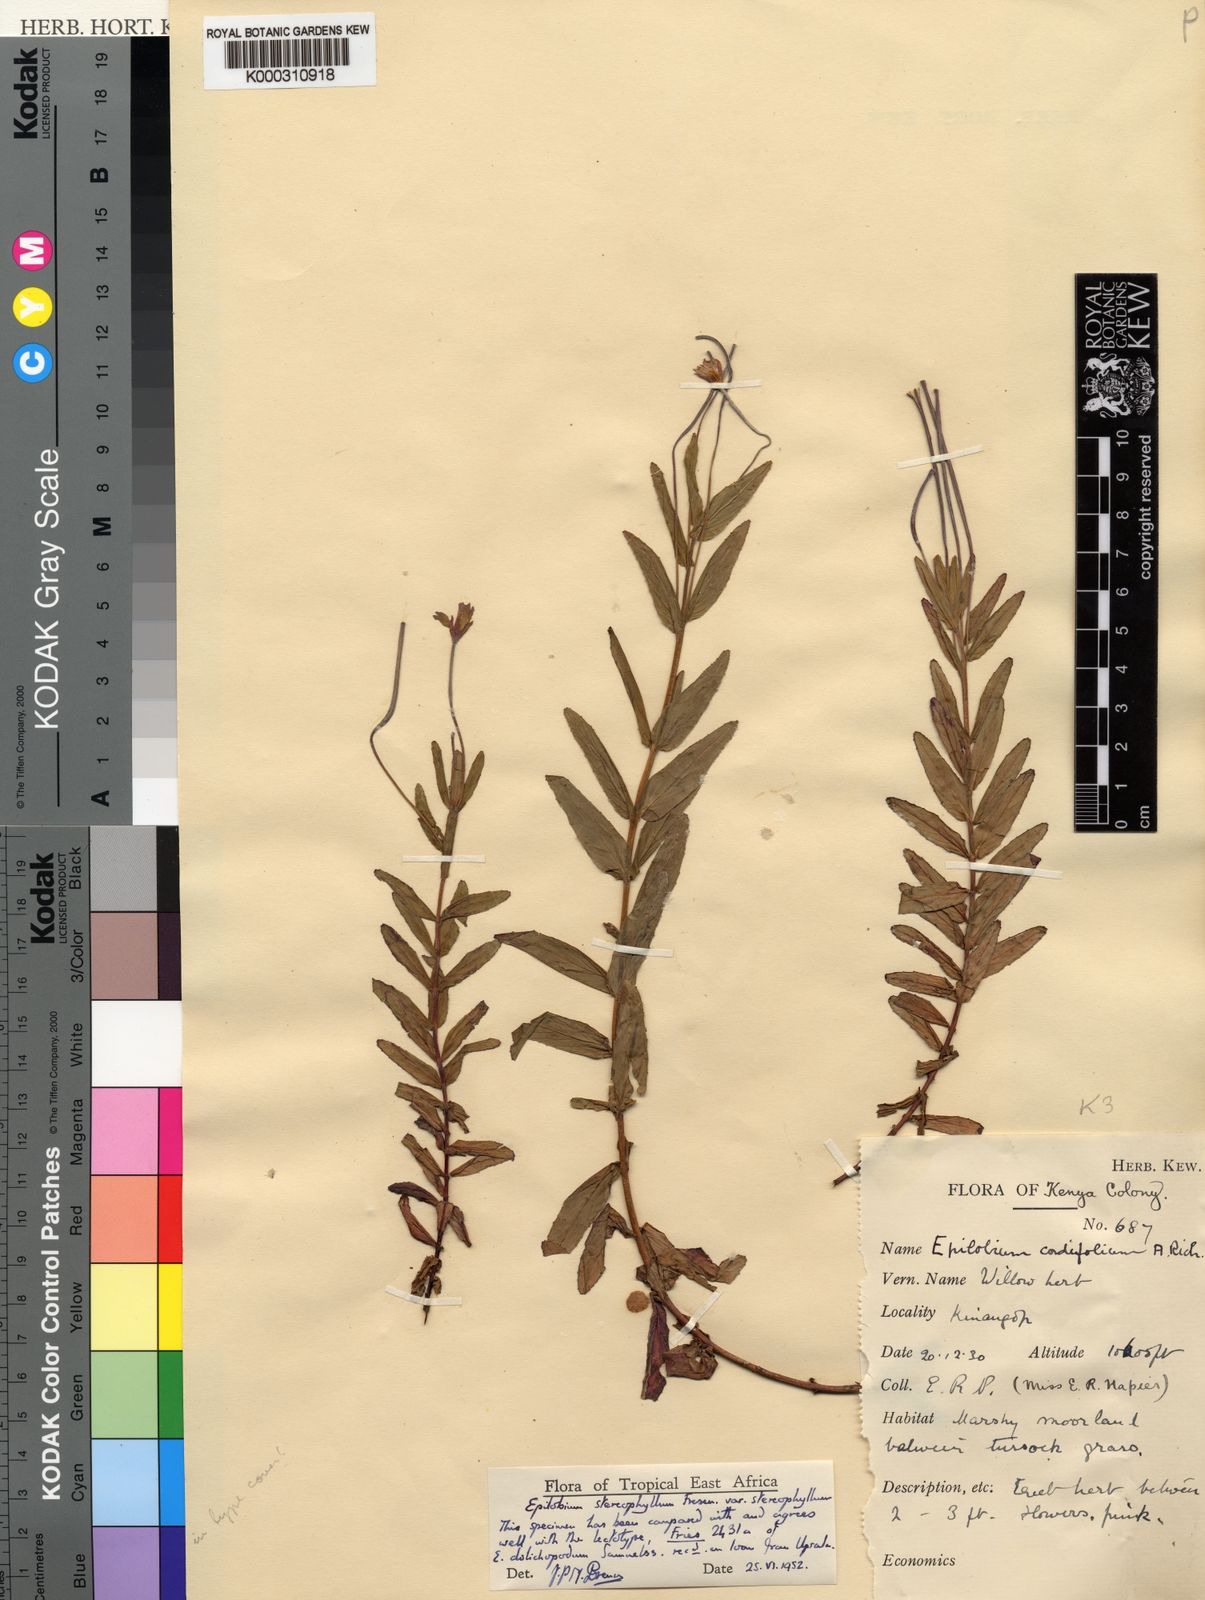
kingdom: Plantae
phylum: Tracheophyta
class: Magnoliopsida
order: Myrtales
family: Onagraceae
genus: Epilobium
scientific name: Epilobium stereophyllum
